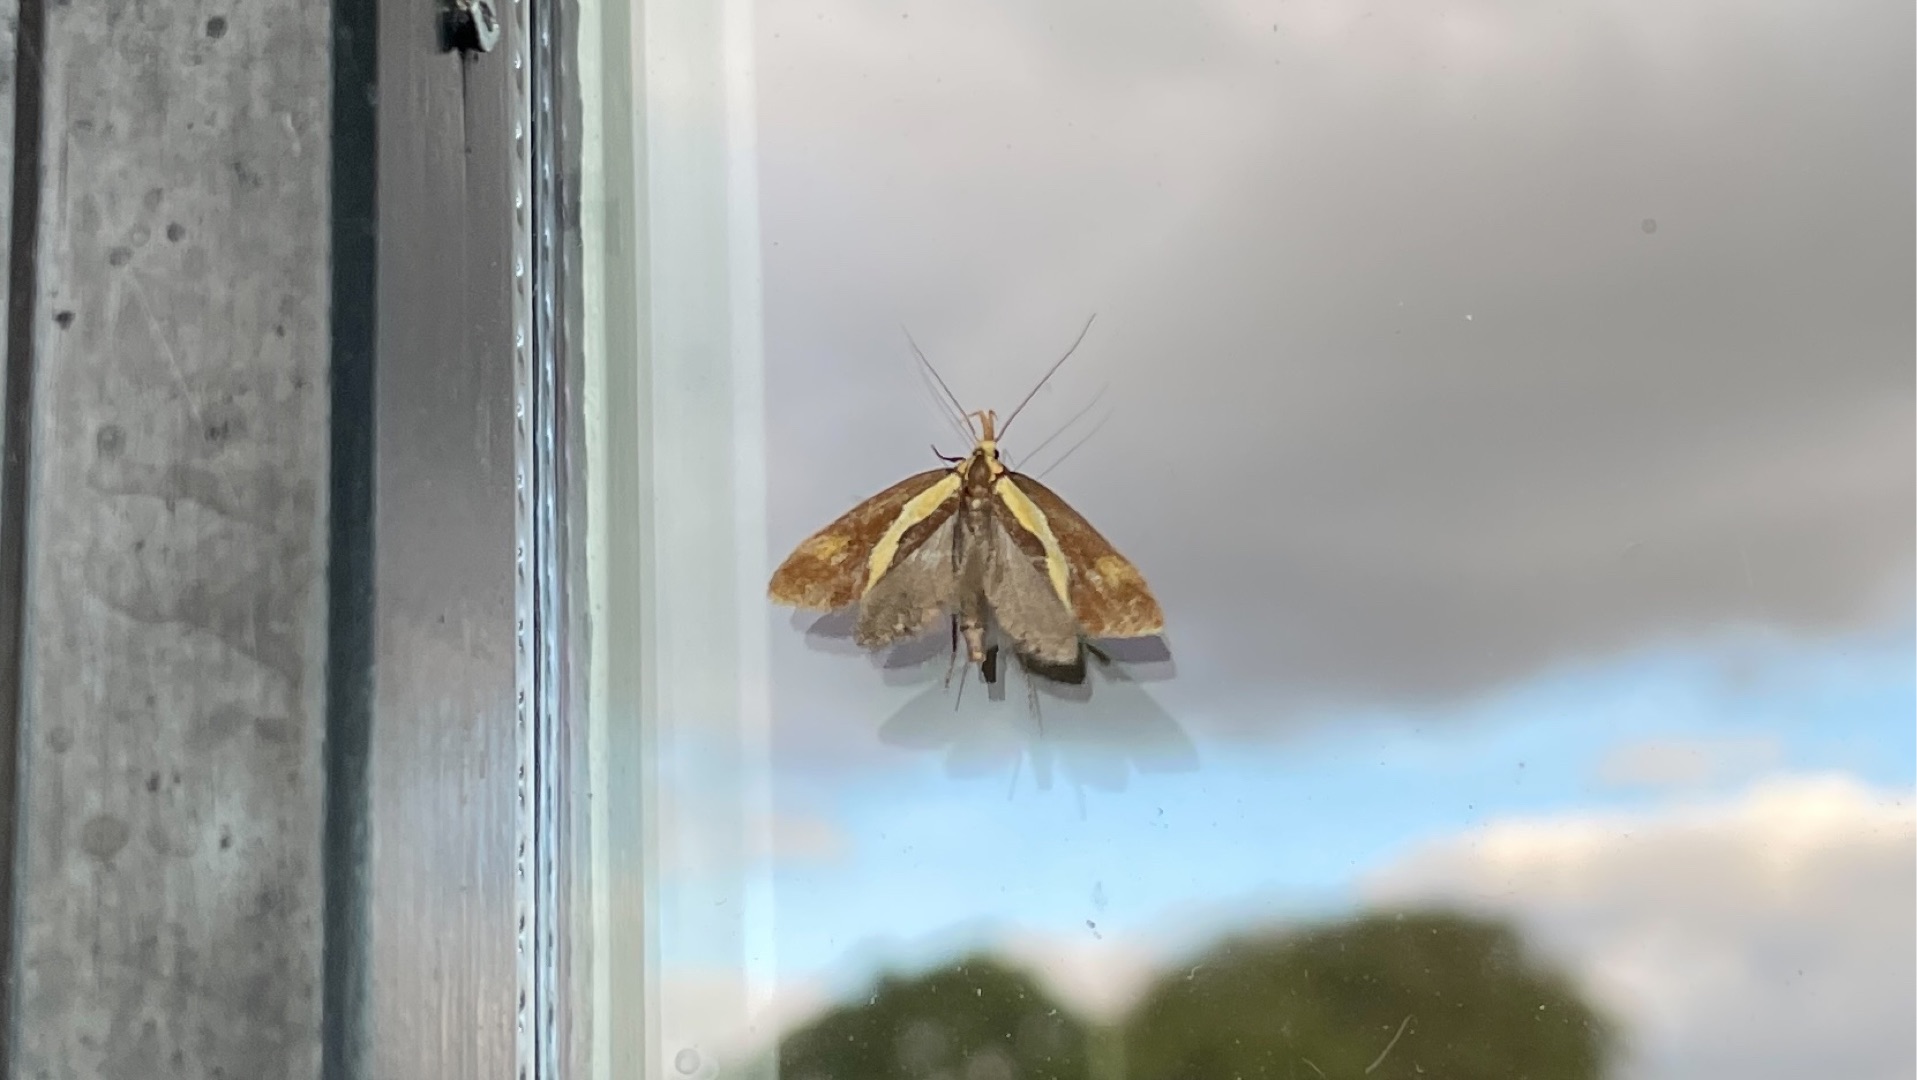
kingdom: Animalia
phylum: Arthropoda
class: Insecta
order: Lepidoptera
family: Oecophoridae
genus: Harpella
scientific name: Harpella forficella
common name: Kæmpeprydvinge
